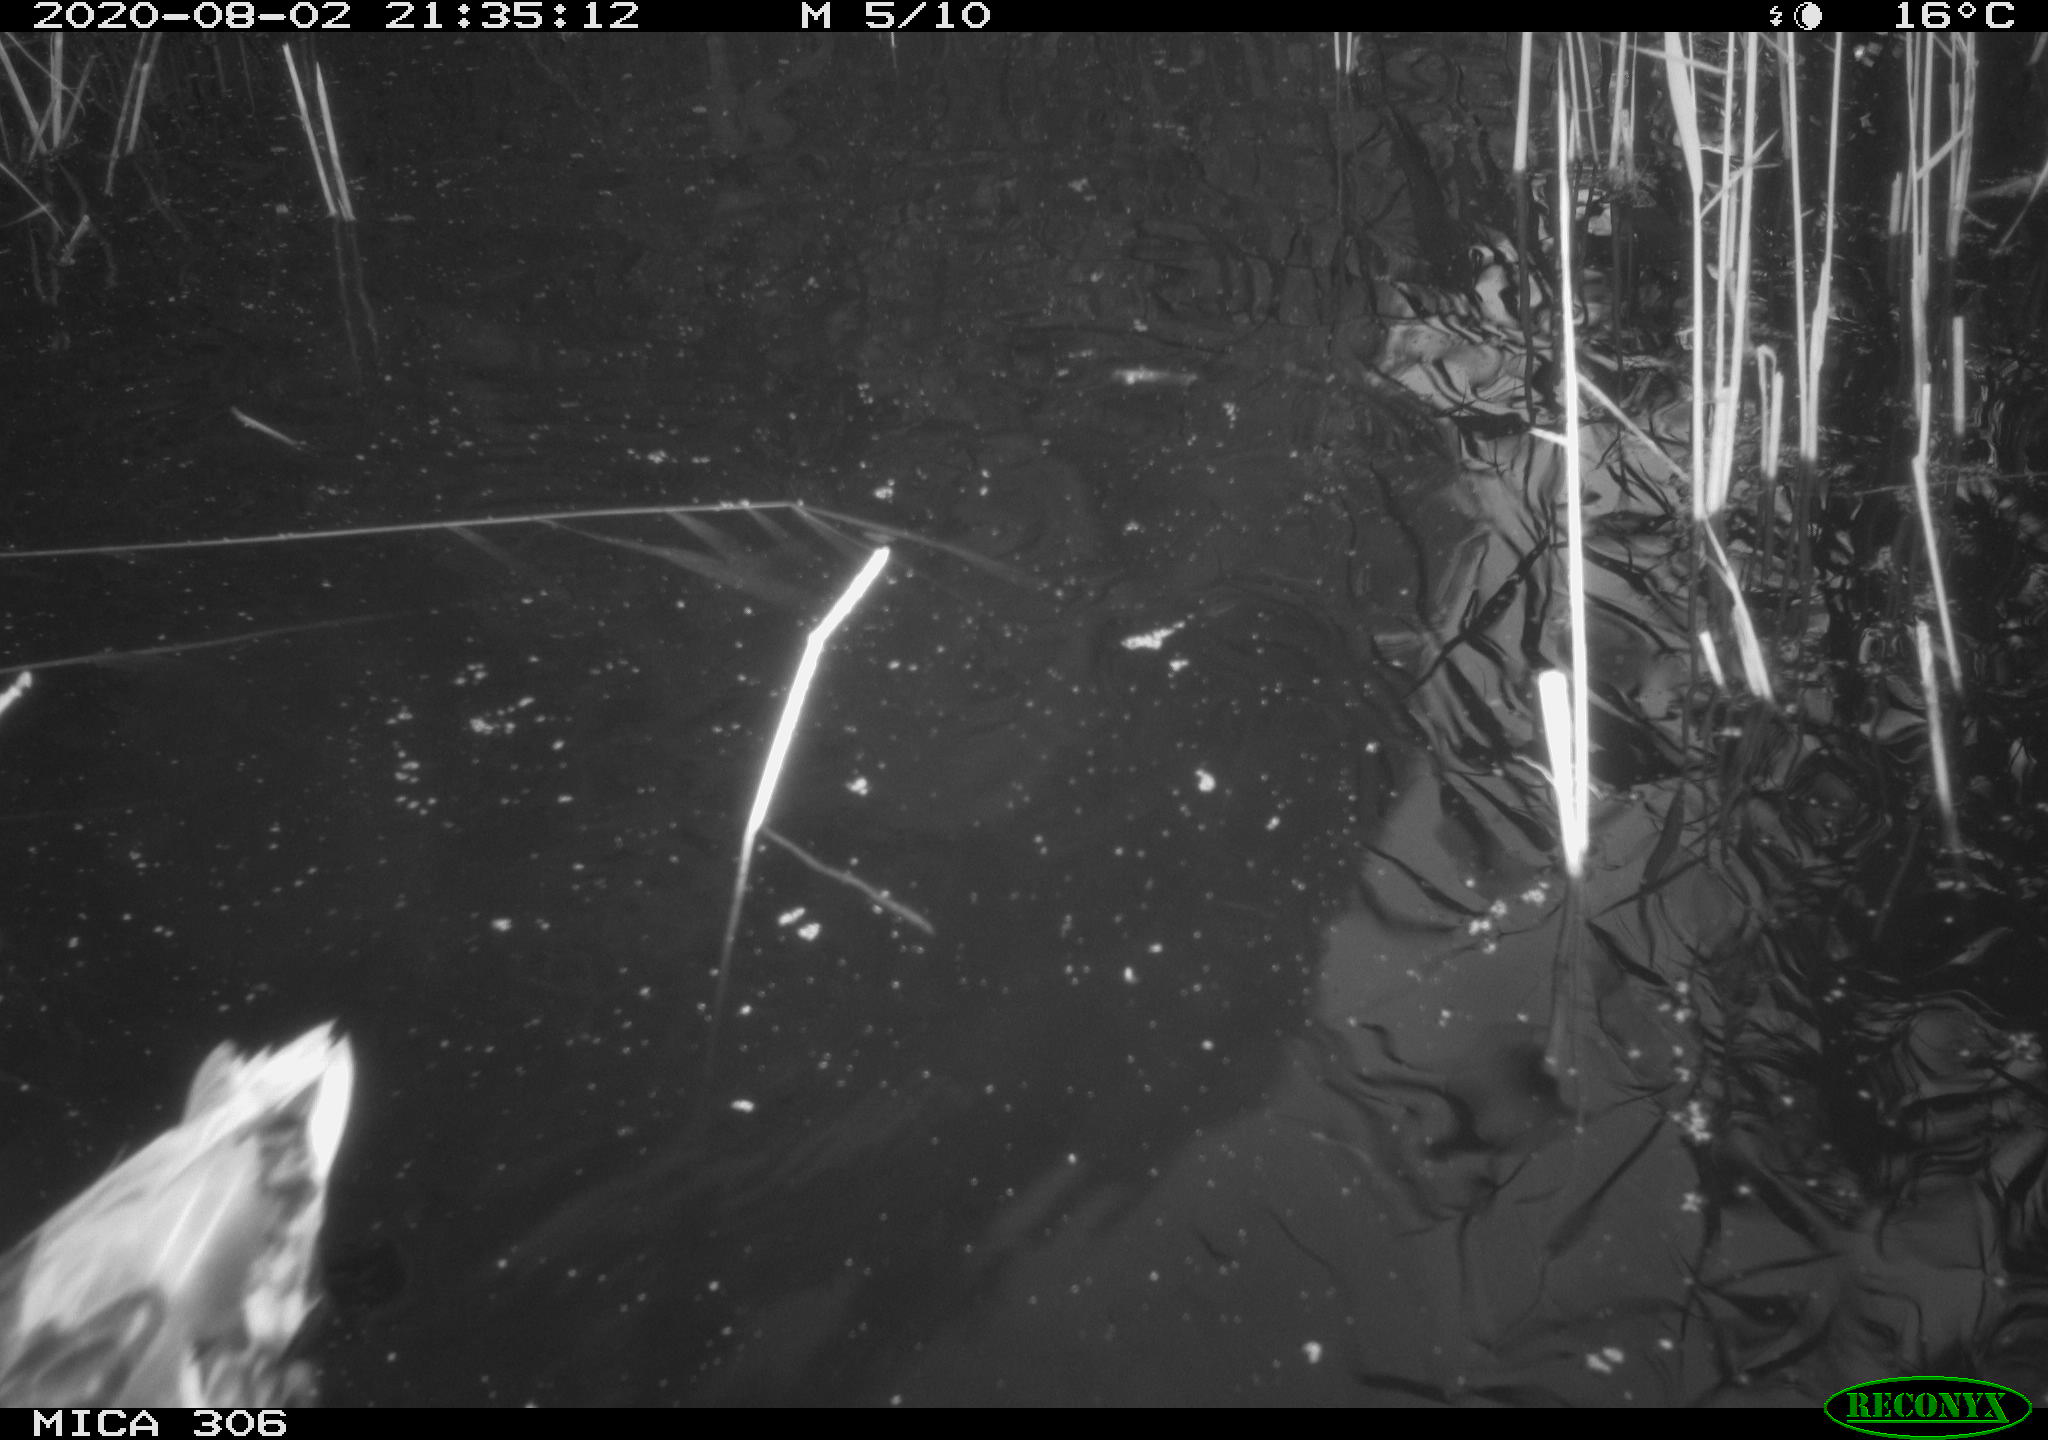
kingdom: Animalia
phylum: Chordata
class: Aves
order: Anseriformes
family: Anatidae
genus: Anas
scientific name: Anas platyrhynchos
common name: Mallard
